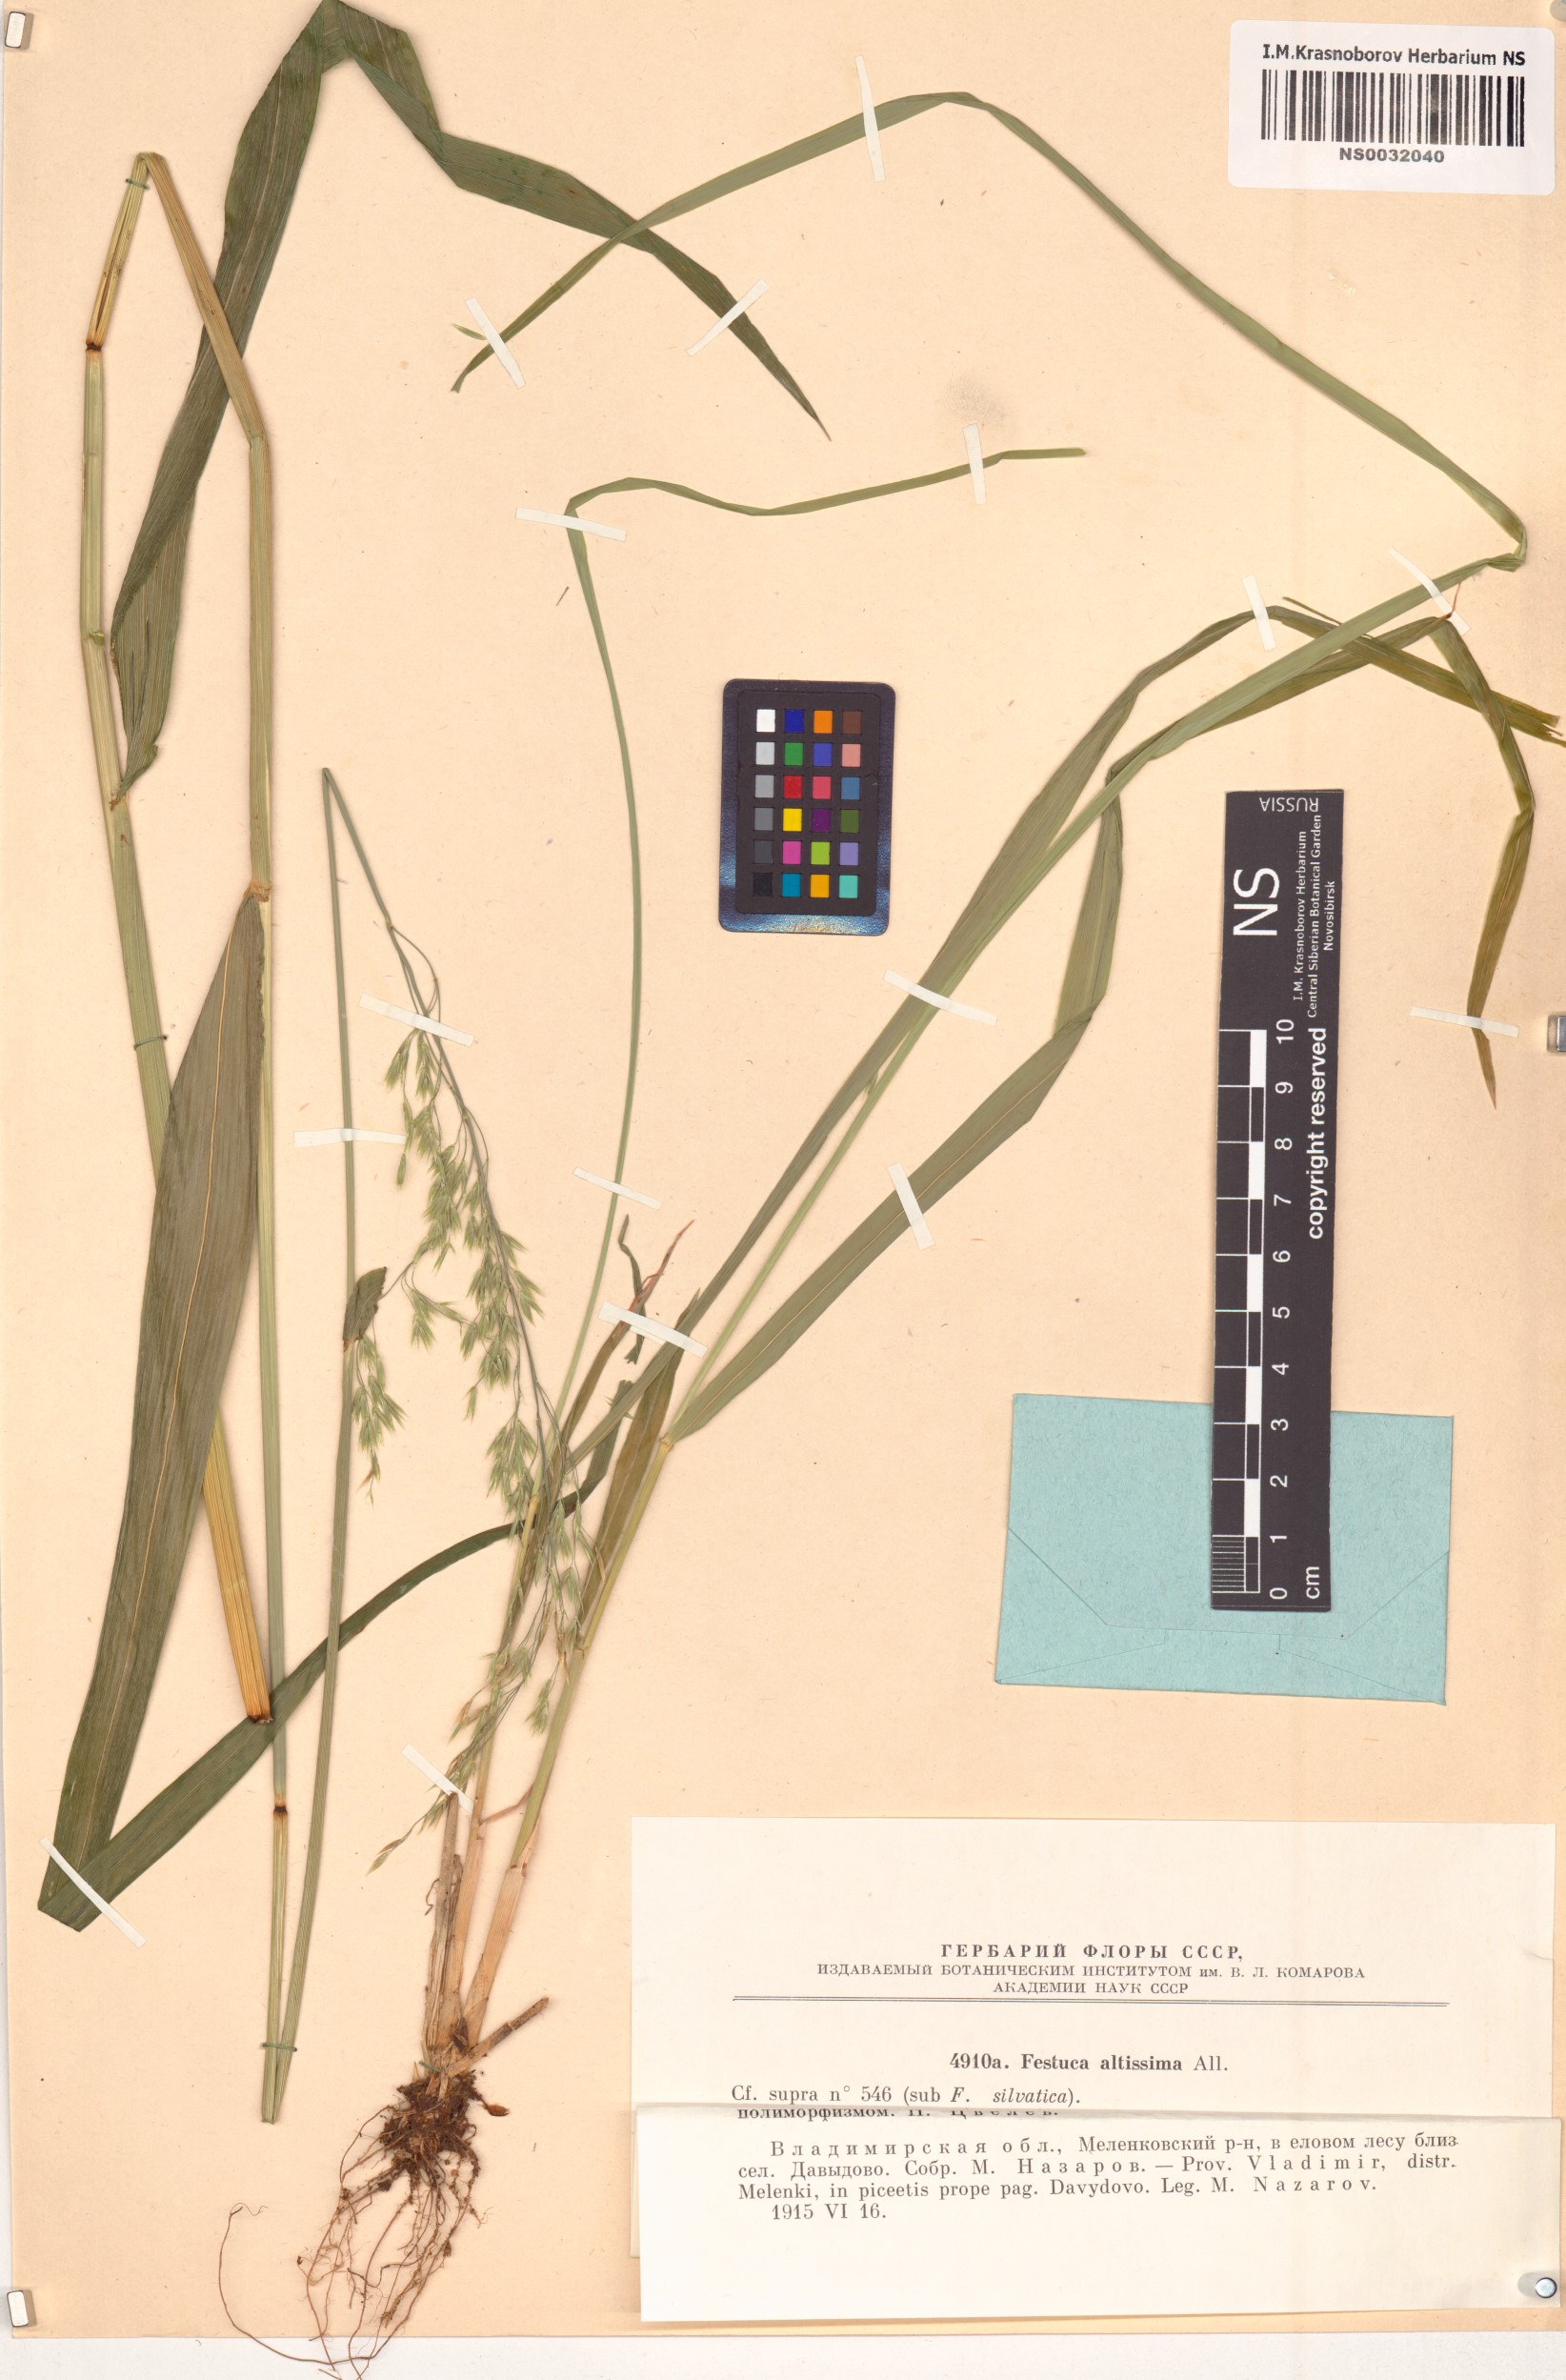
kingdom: Plantae
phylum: Tracheophyta
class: Liliopsida
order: Poales
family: Poaceae
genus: Festuca
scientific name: Festuca altissima
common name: Wood fescue
